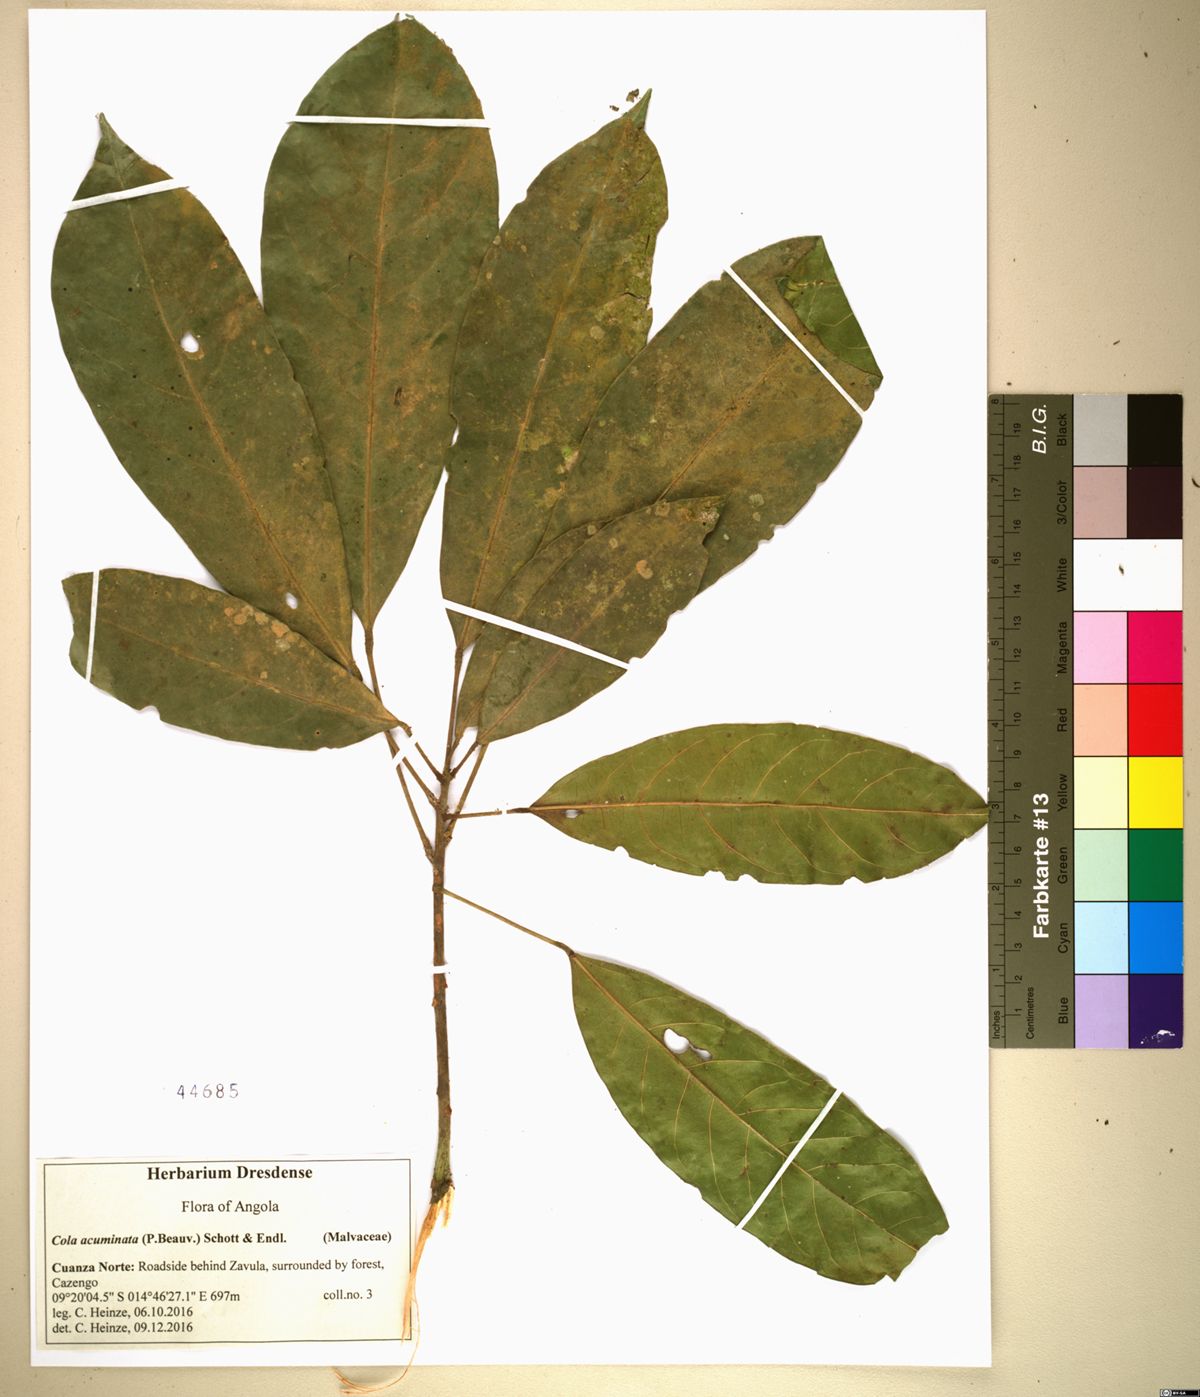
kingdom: Plantae
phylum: Tracheophyta
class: Magnoliopsida
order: Malvales
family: Malvaceae
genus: Cola
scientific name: Cola acuminata
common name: True kola
